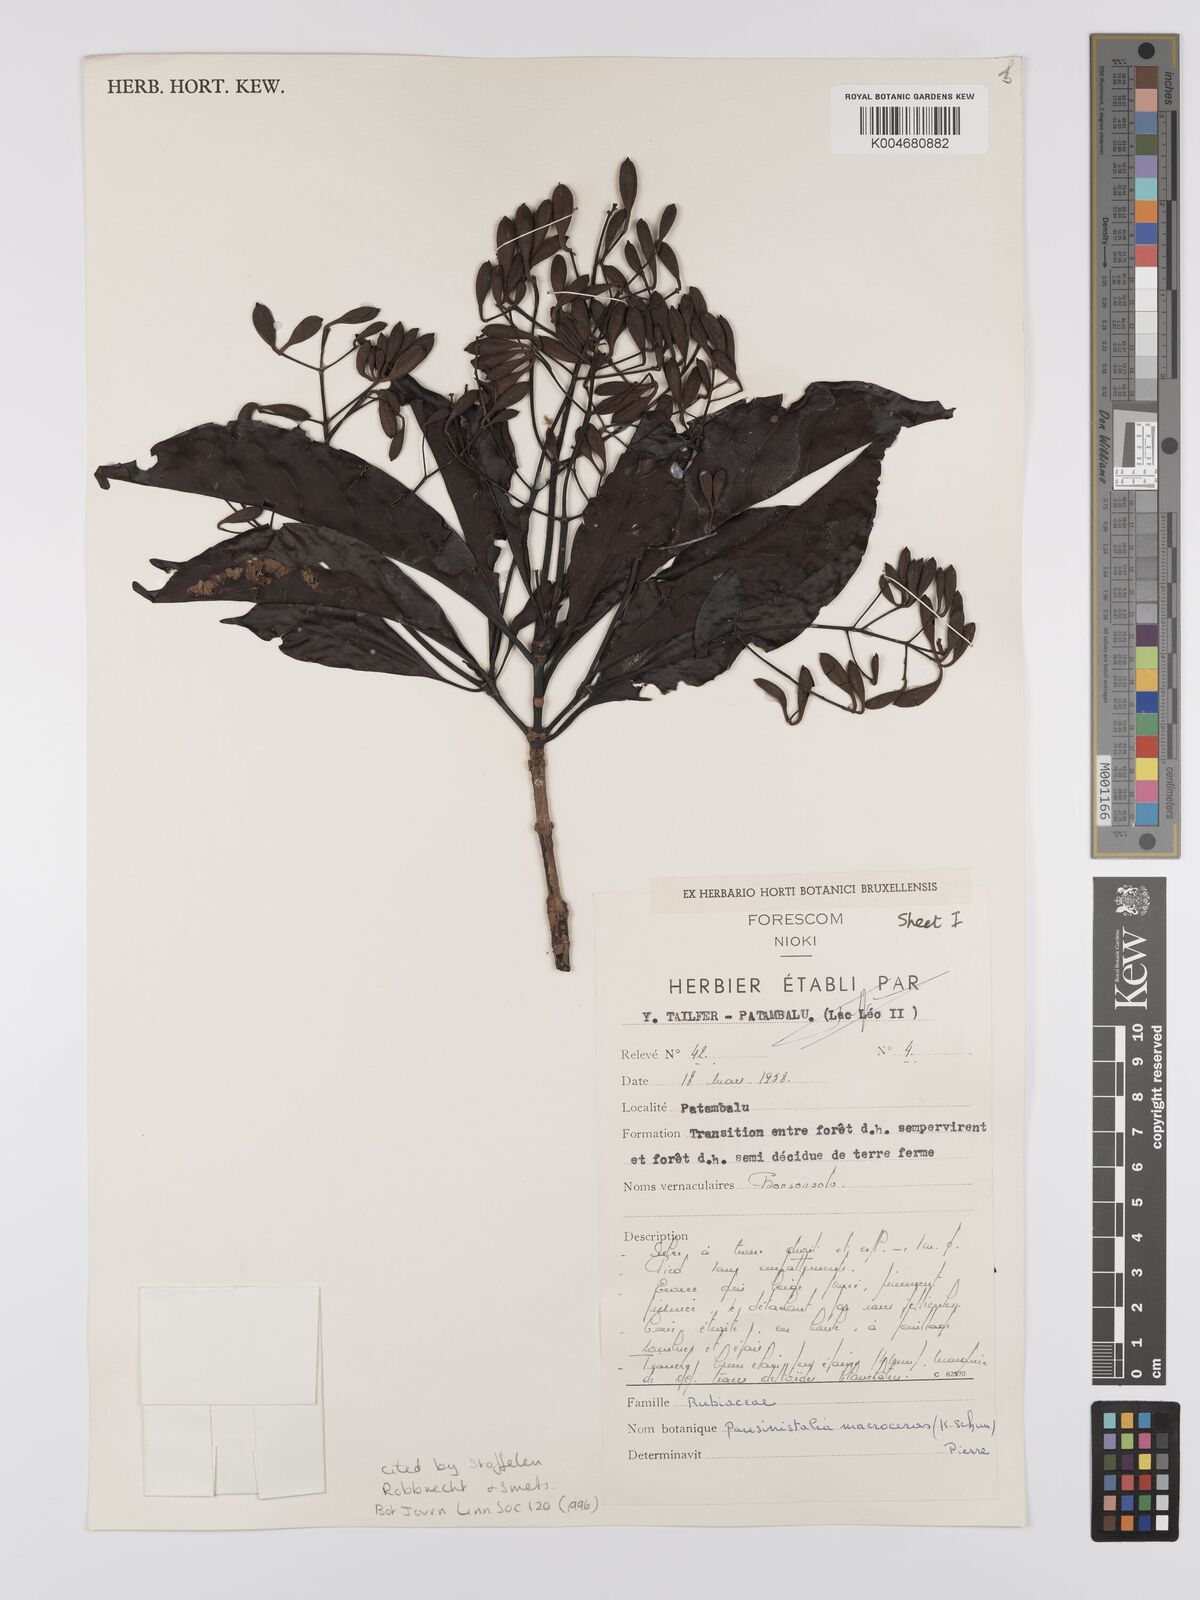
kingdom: Plantae
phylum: Tracheophyta
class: Magnoliopsida
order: Gentianales
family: Rubiaceae
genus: Corynanthe
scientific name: Corynanthe macroceras
